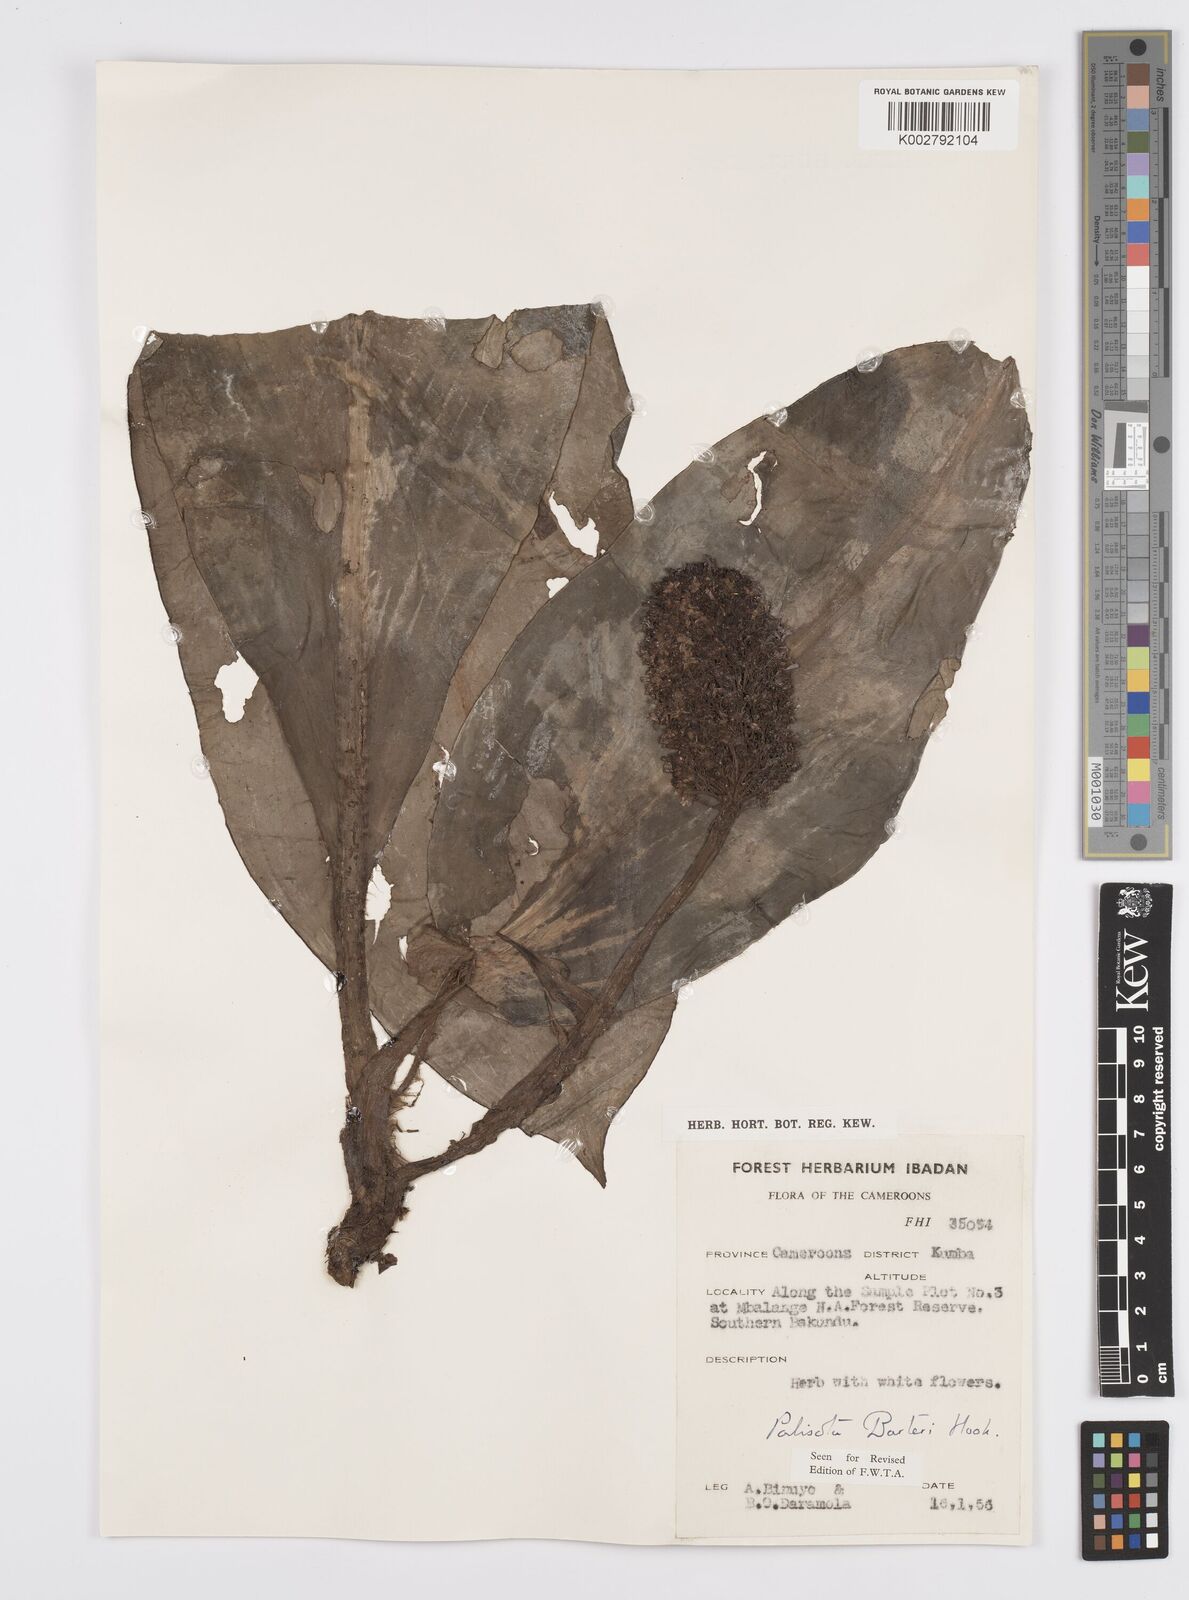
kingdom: Plantae
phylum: Tracheophyta
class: Liliopsida
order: Commelinales
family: Commelinaceae
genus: Palisota
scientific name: Palisota barteri
